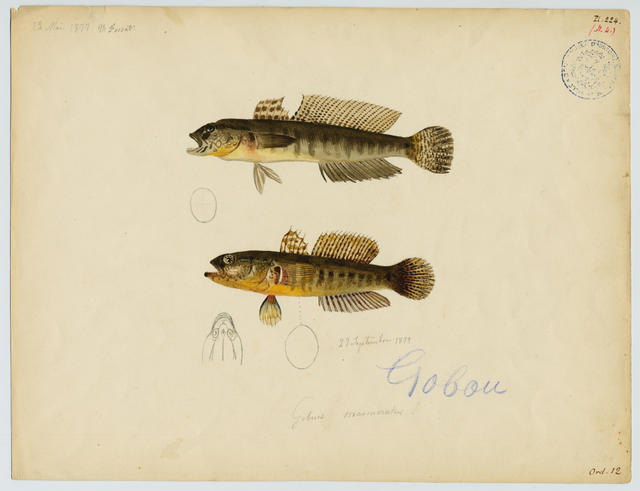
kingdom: Animalia
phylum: Chordata
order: Perciformes
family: Gobiidae
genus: Pomatoschistus
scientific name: Pomatoschistus marmoratus
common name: Marbled goby
